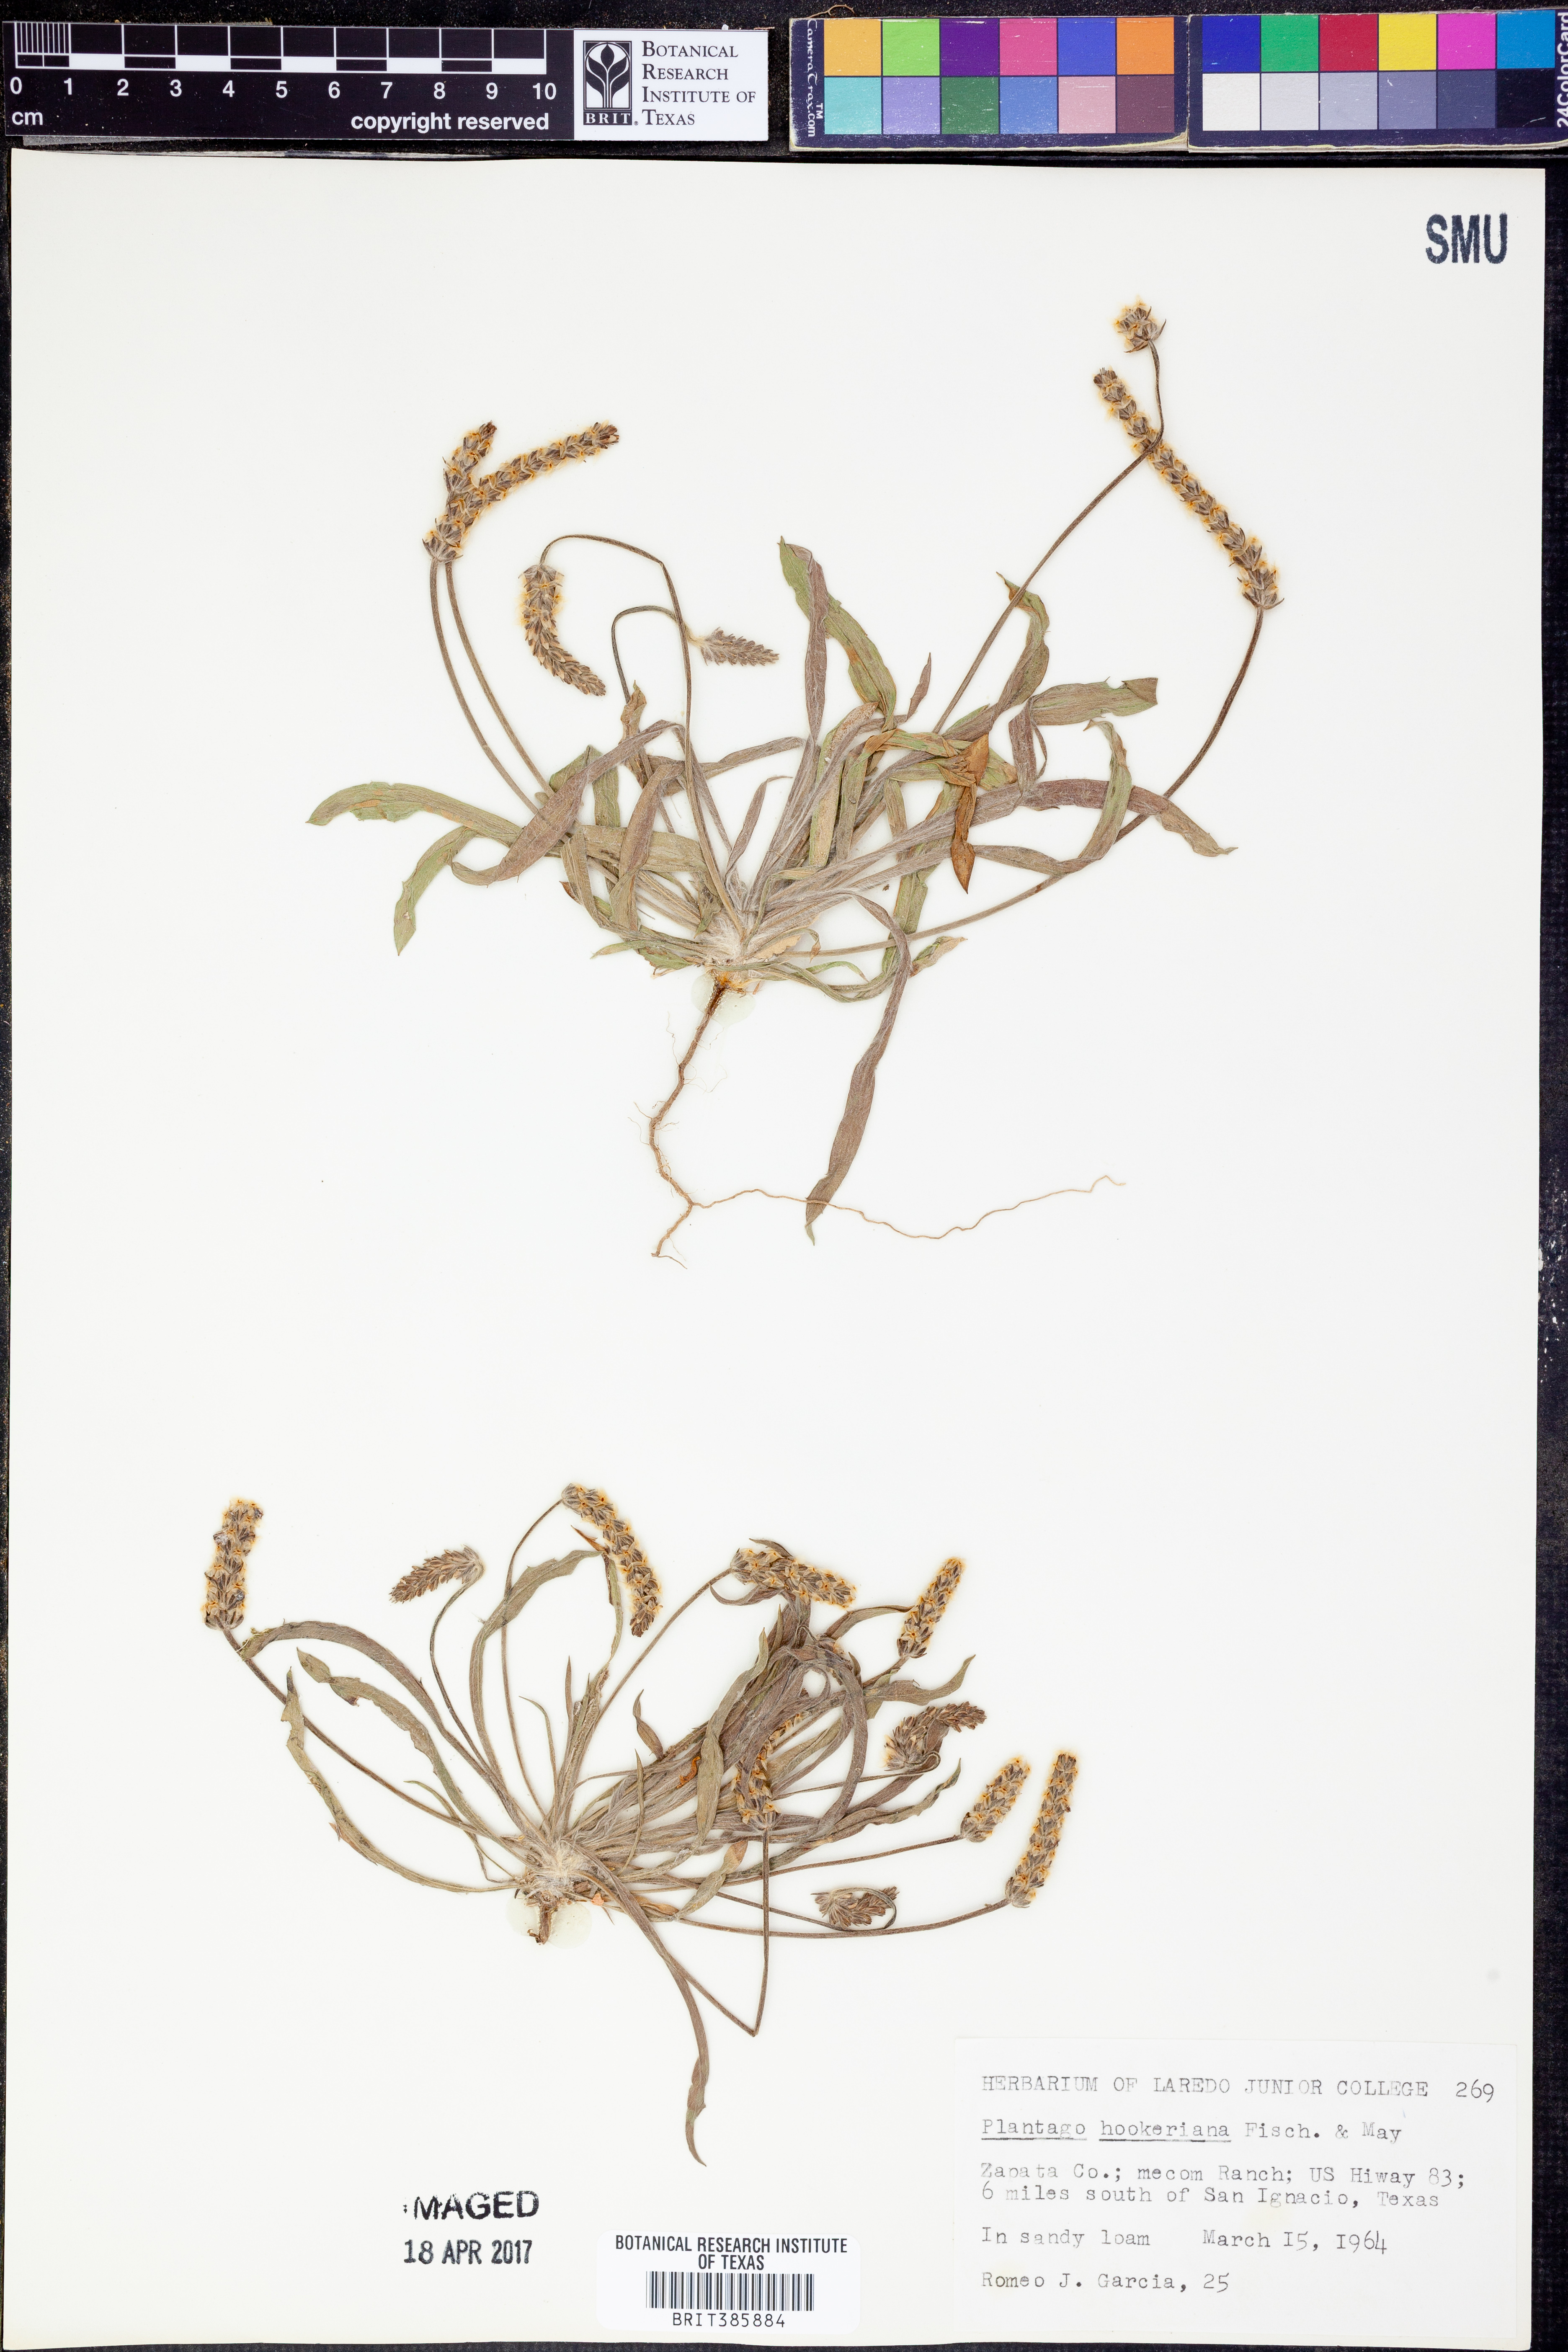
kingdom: Plantae
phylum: Tracheophyta
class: Magnoliopsida
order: Lamiales
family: Plantaginaceae
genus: Plantago
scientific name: Plantago hookeriana
